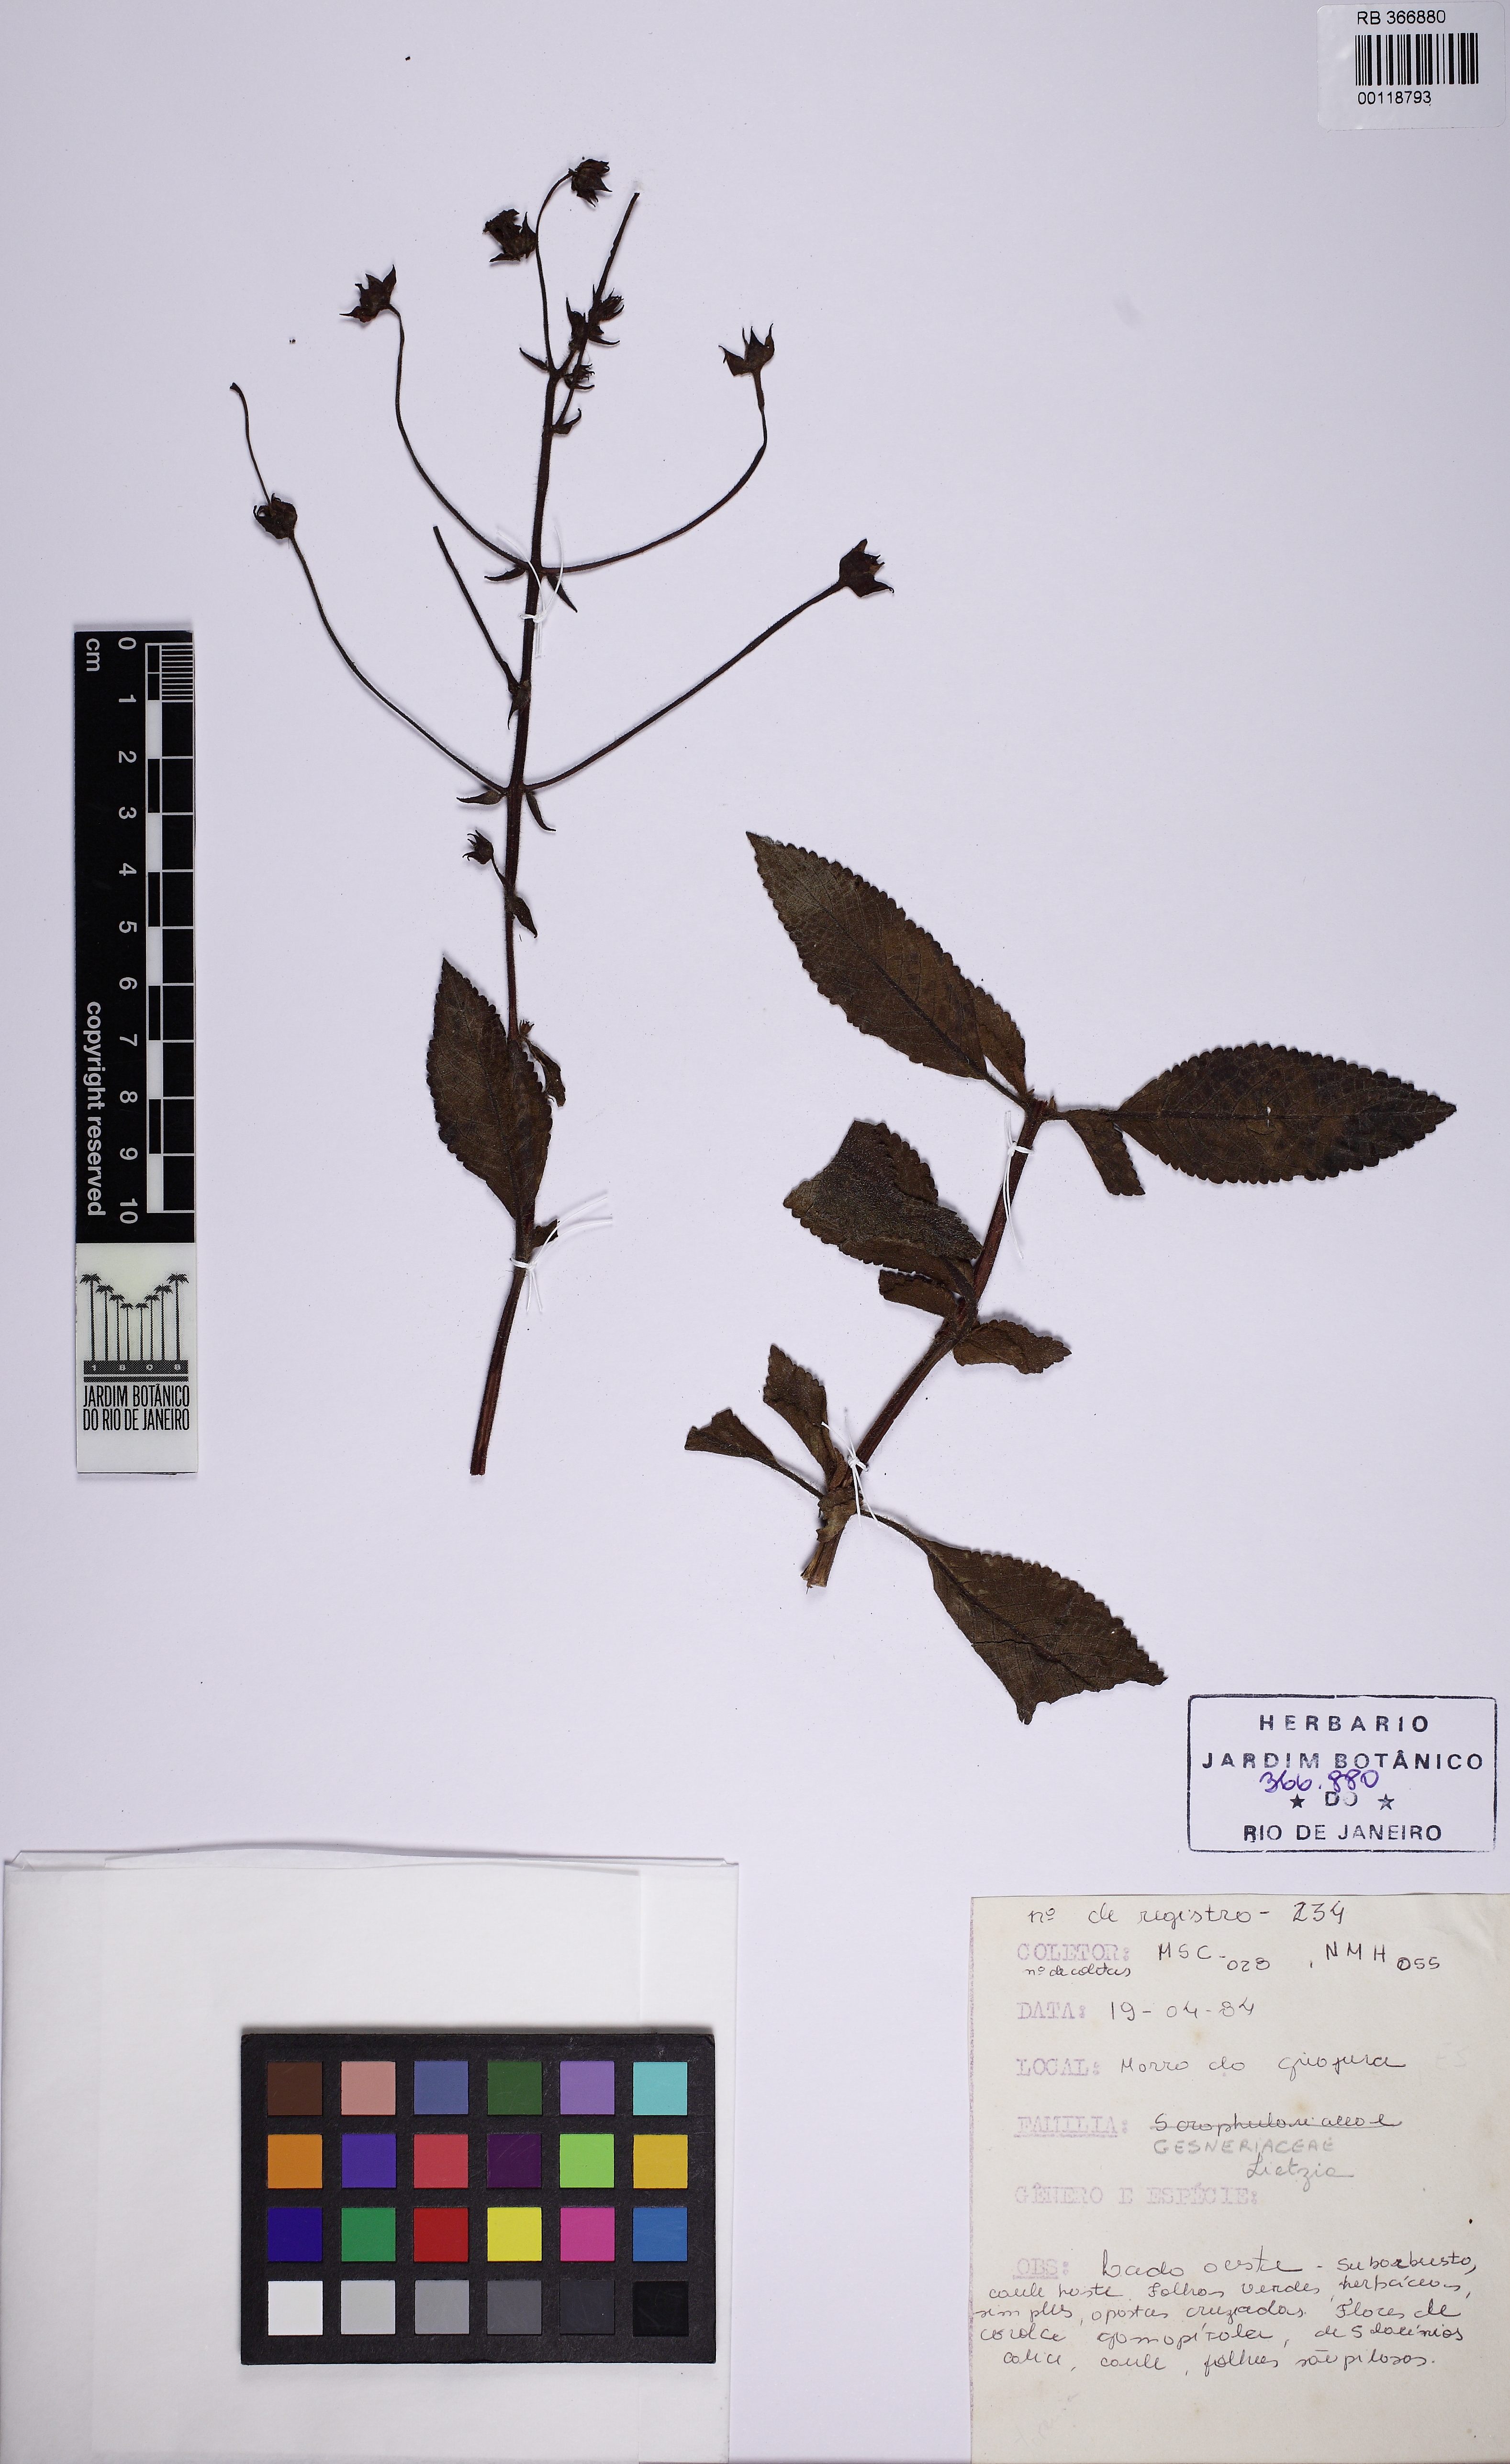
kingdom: Plantae
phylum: Tracheophyta
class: Magnoliopsida
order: Lamiales
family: Gesneriaceae
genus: Sinningia
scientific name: Sinningia
